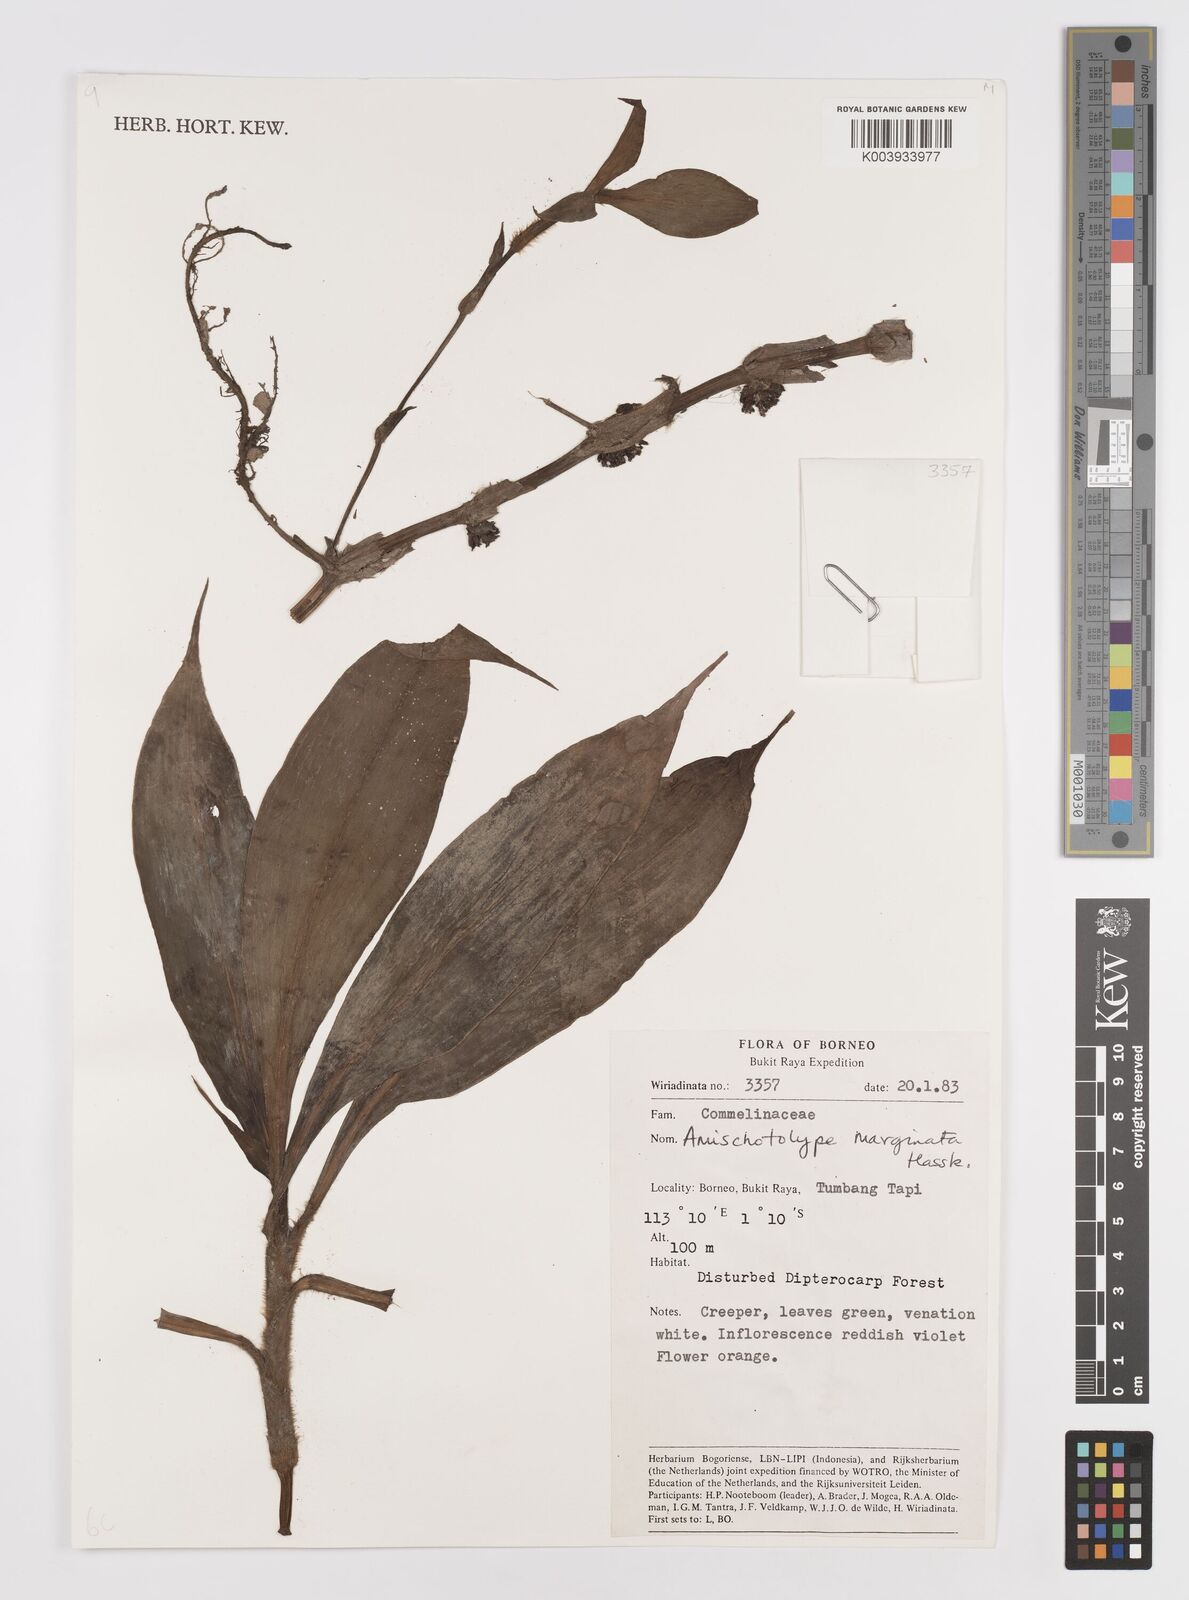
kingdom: Plantae
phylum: Tracheophyta
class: Liliopsida
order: Commelinales
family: Commelinaceae
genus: Amischotolype
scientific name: Amischotolype marginata
